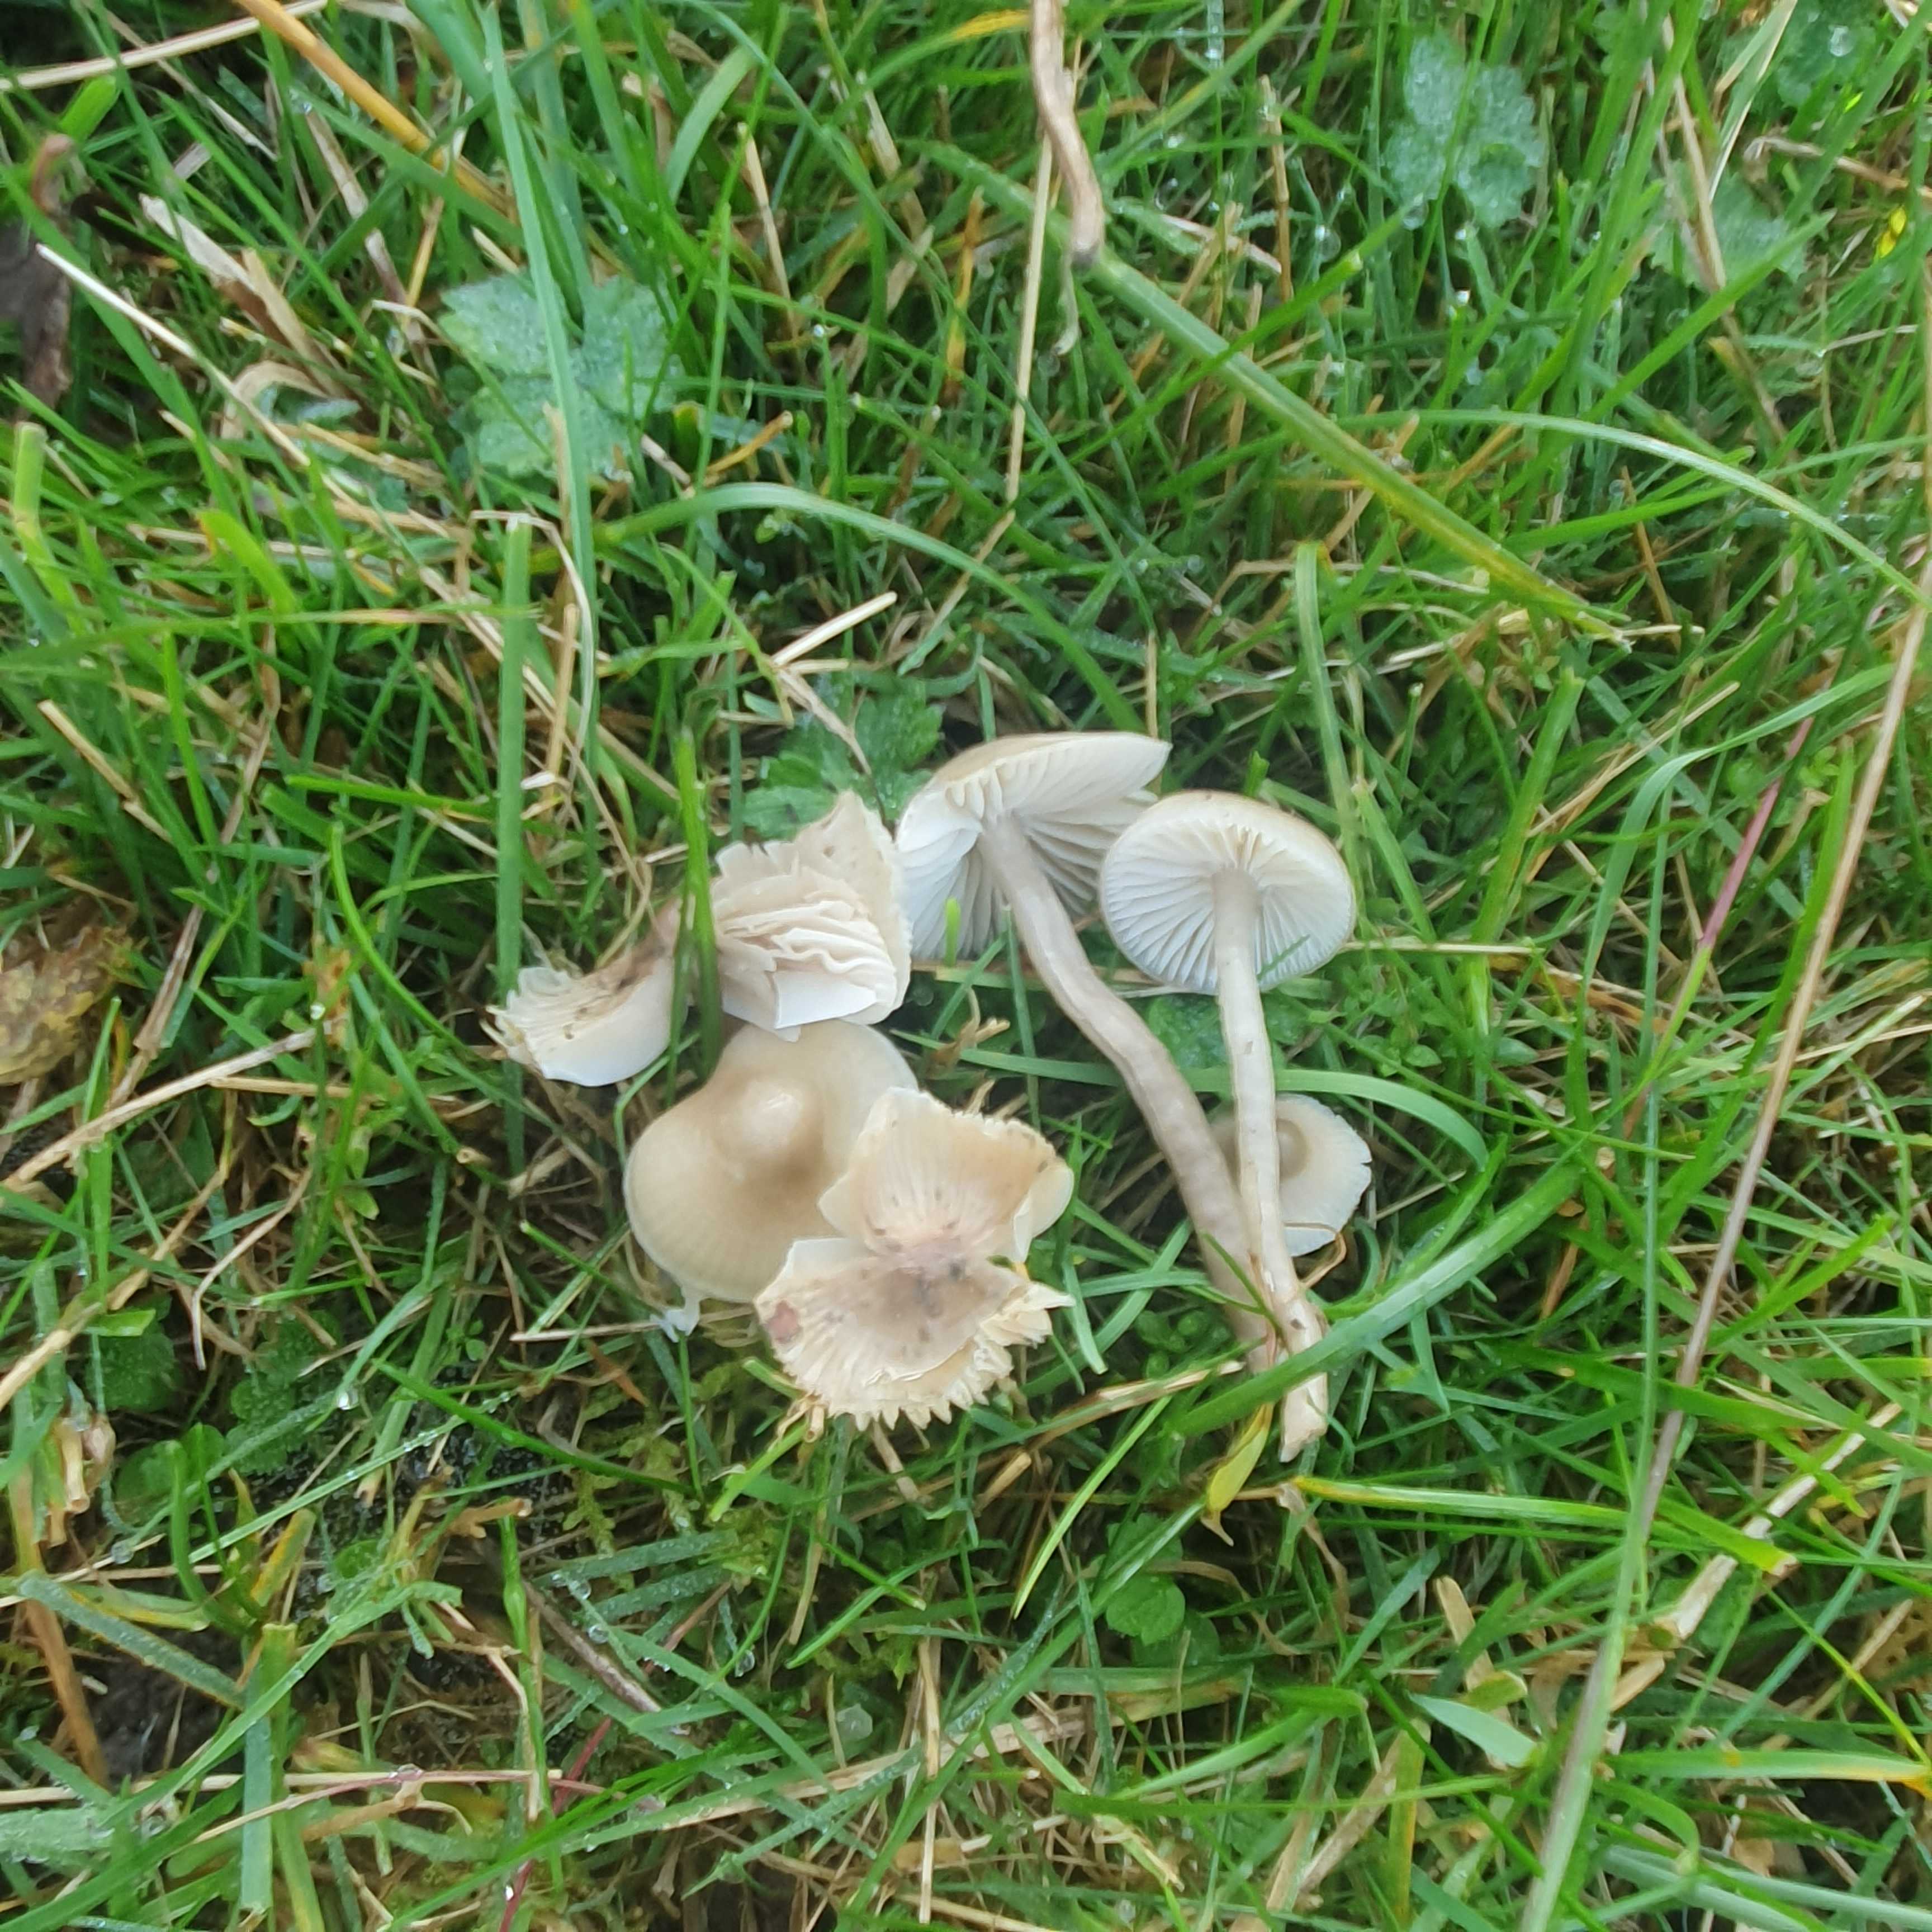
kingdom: Fungi
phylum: Basidiomycota
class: Agaricomycetes
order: Agaricales
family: Hygrophoraceae
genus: Gliophorus
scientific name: Gliophorus irrigatus
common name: slimet vokshat
